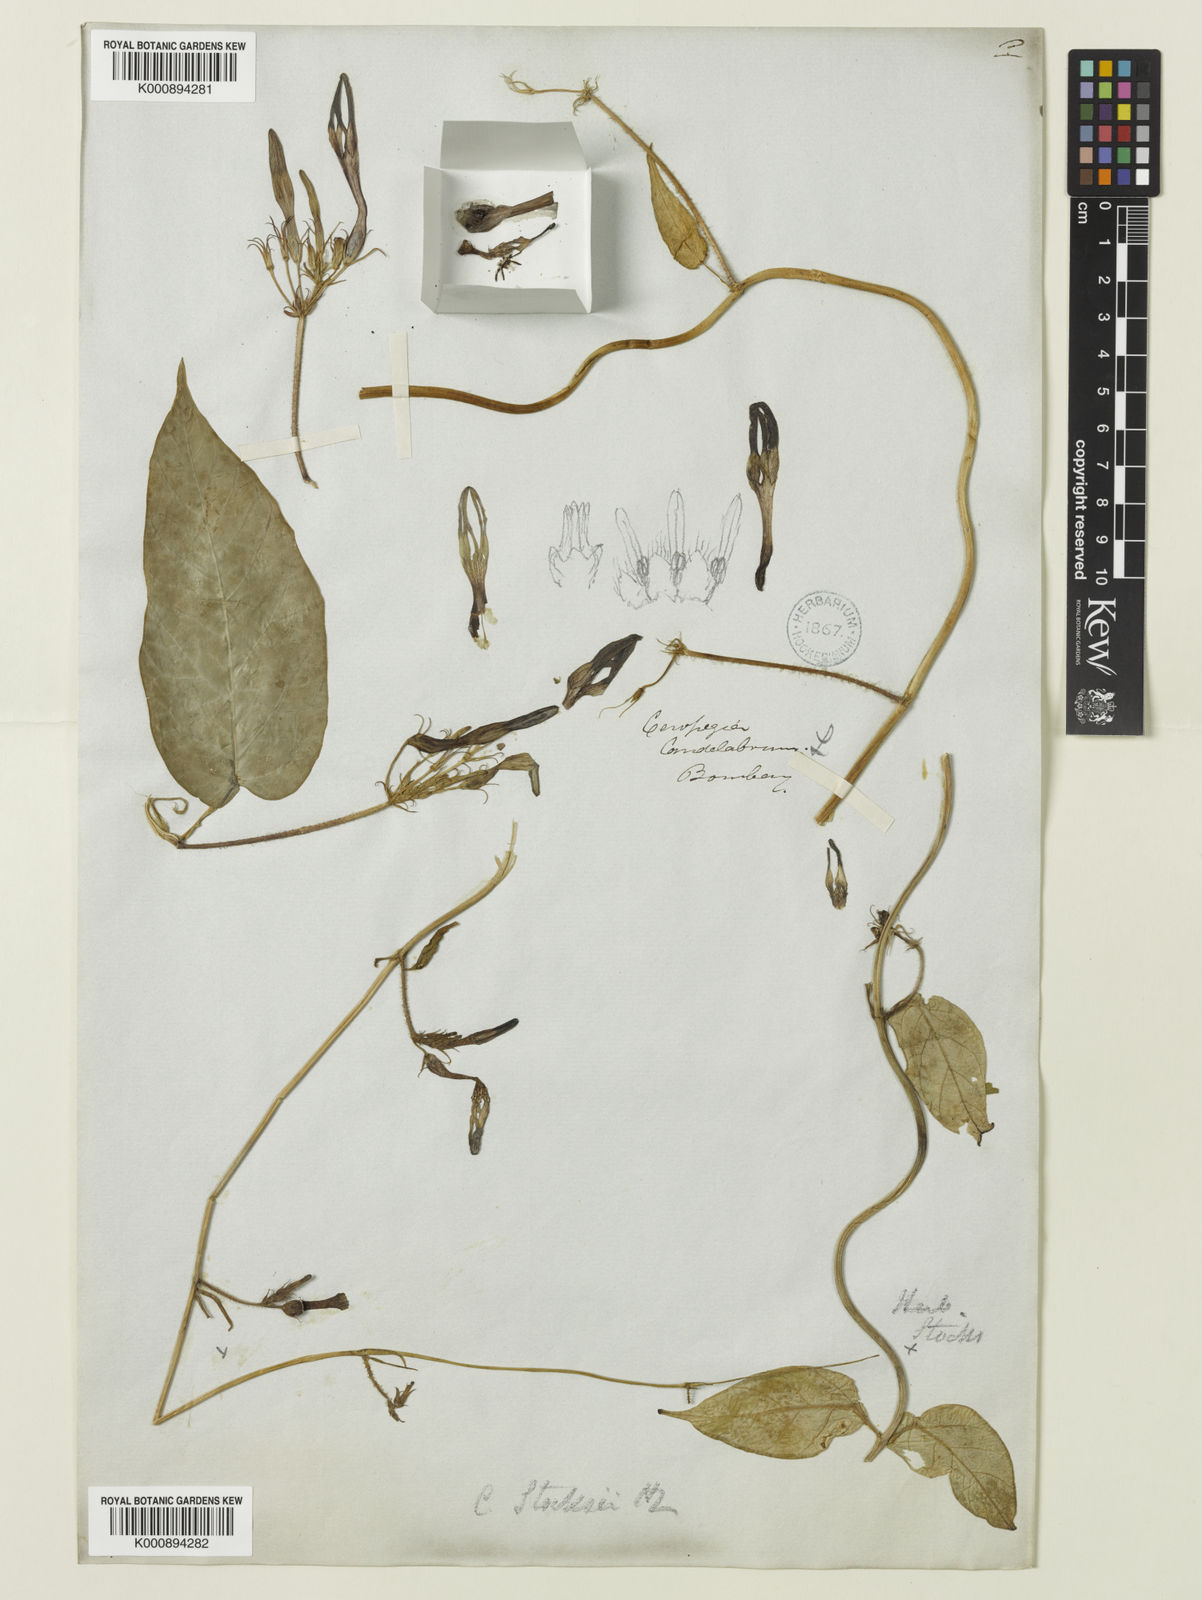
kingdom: Plantae
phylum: Tracheophyta
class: Magnoliopsida
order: Gentianales
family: Apocynaceae
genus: Ceropegia
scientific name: Ceropegia vincifolia
